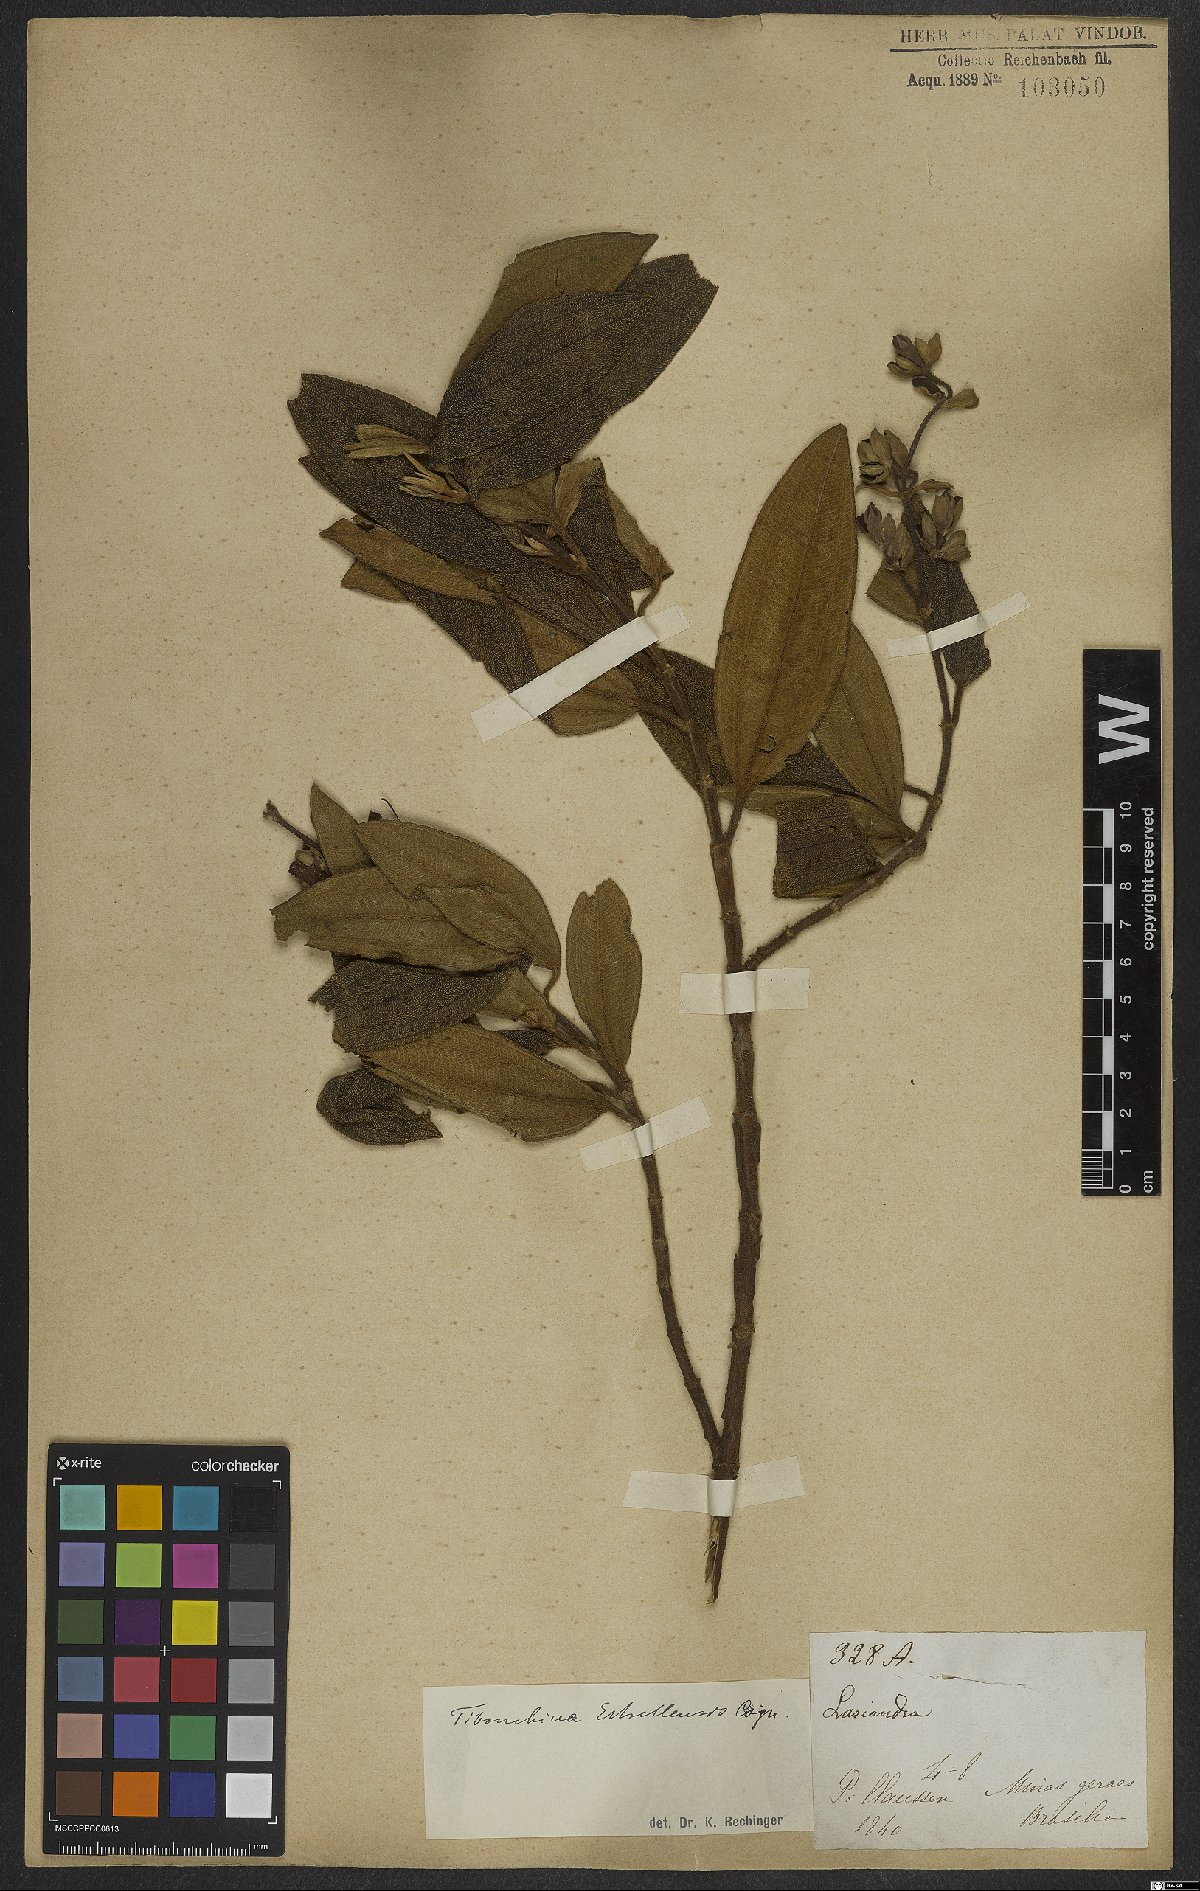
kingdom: Plantae
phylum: Tracheophyta
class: Magnoliopsida
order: Myrtales
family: Melastomataceae
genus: Pleroma
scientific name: Pleroma estrellense
